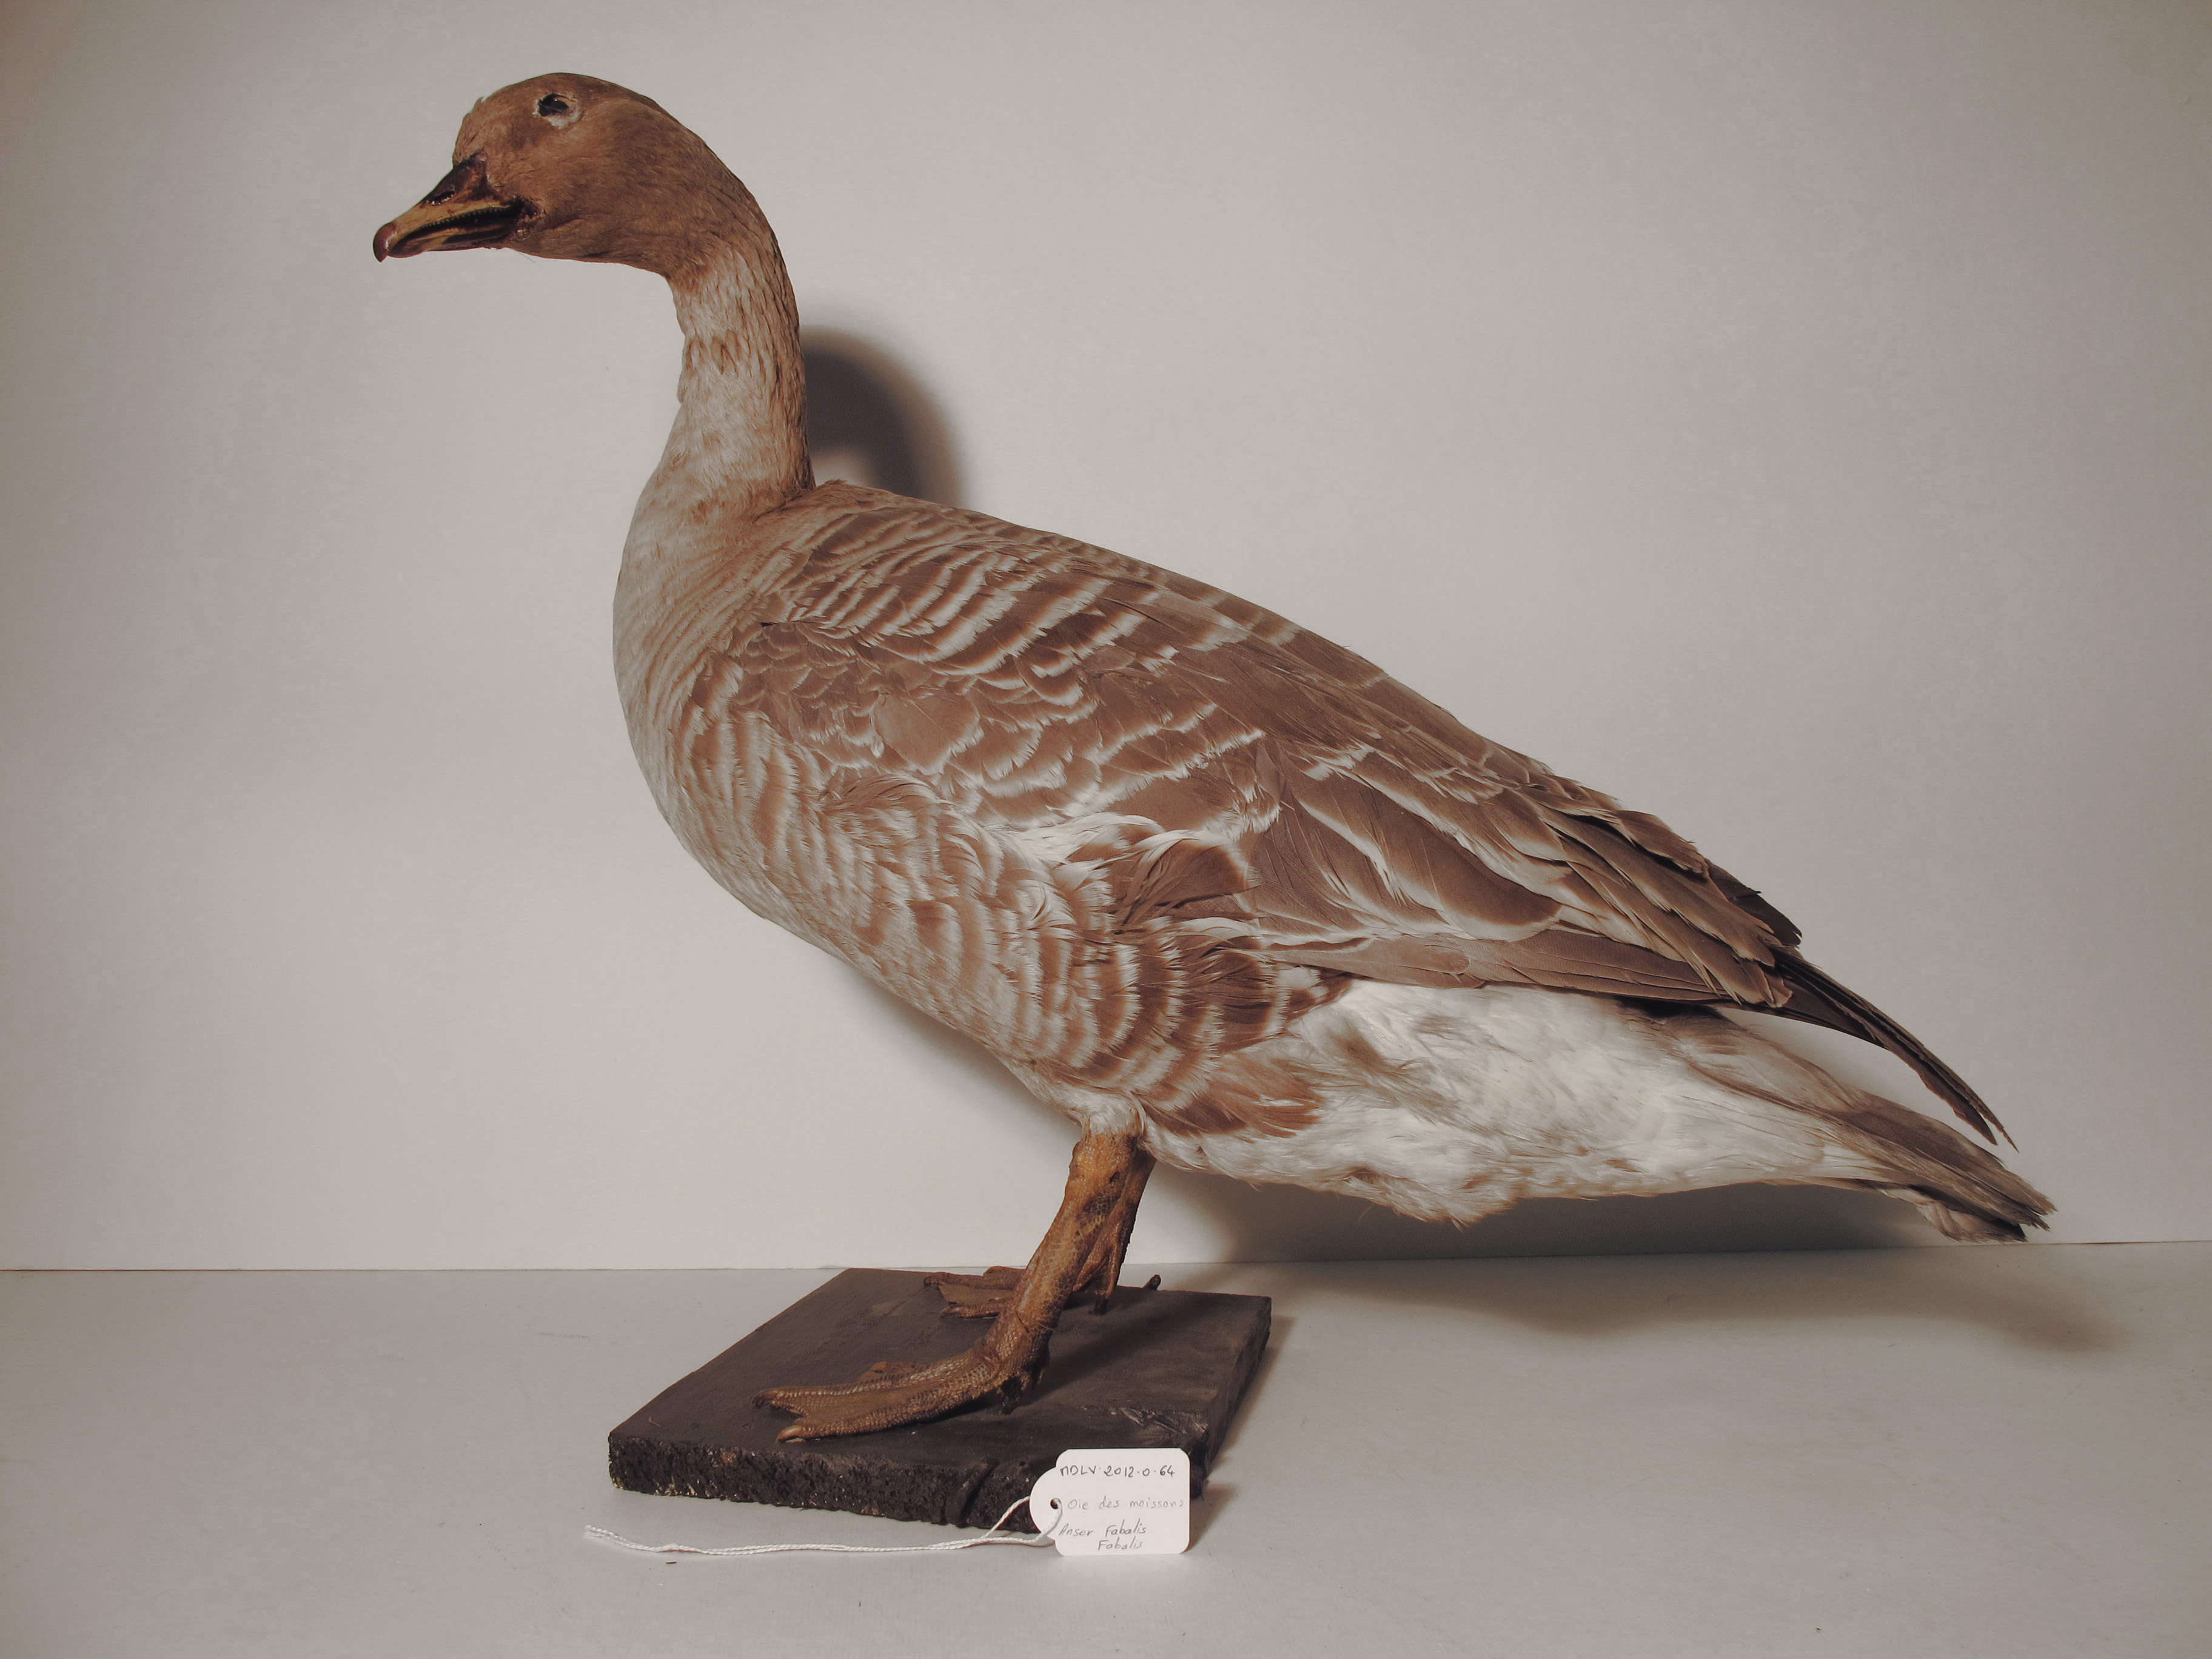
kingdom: Animalia
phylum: Chordata
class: Aves
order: Anseriformes
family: Anatidae
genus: Anser
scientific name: Anser fabalis
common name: Bean Goose
